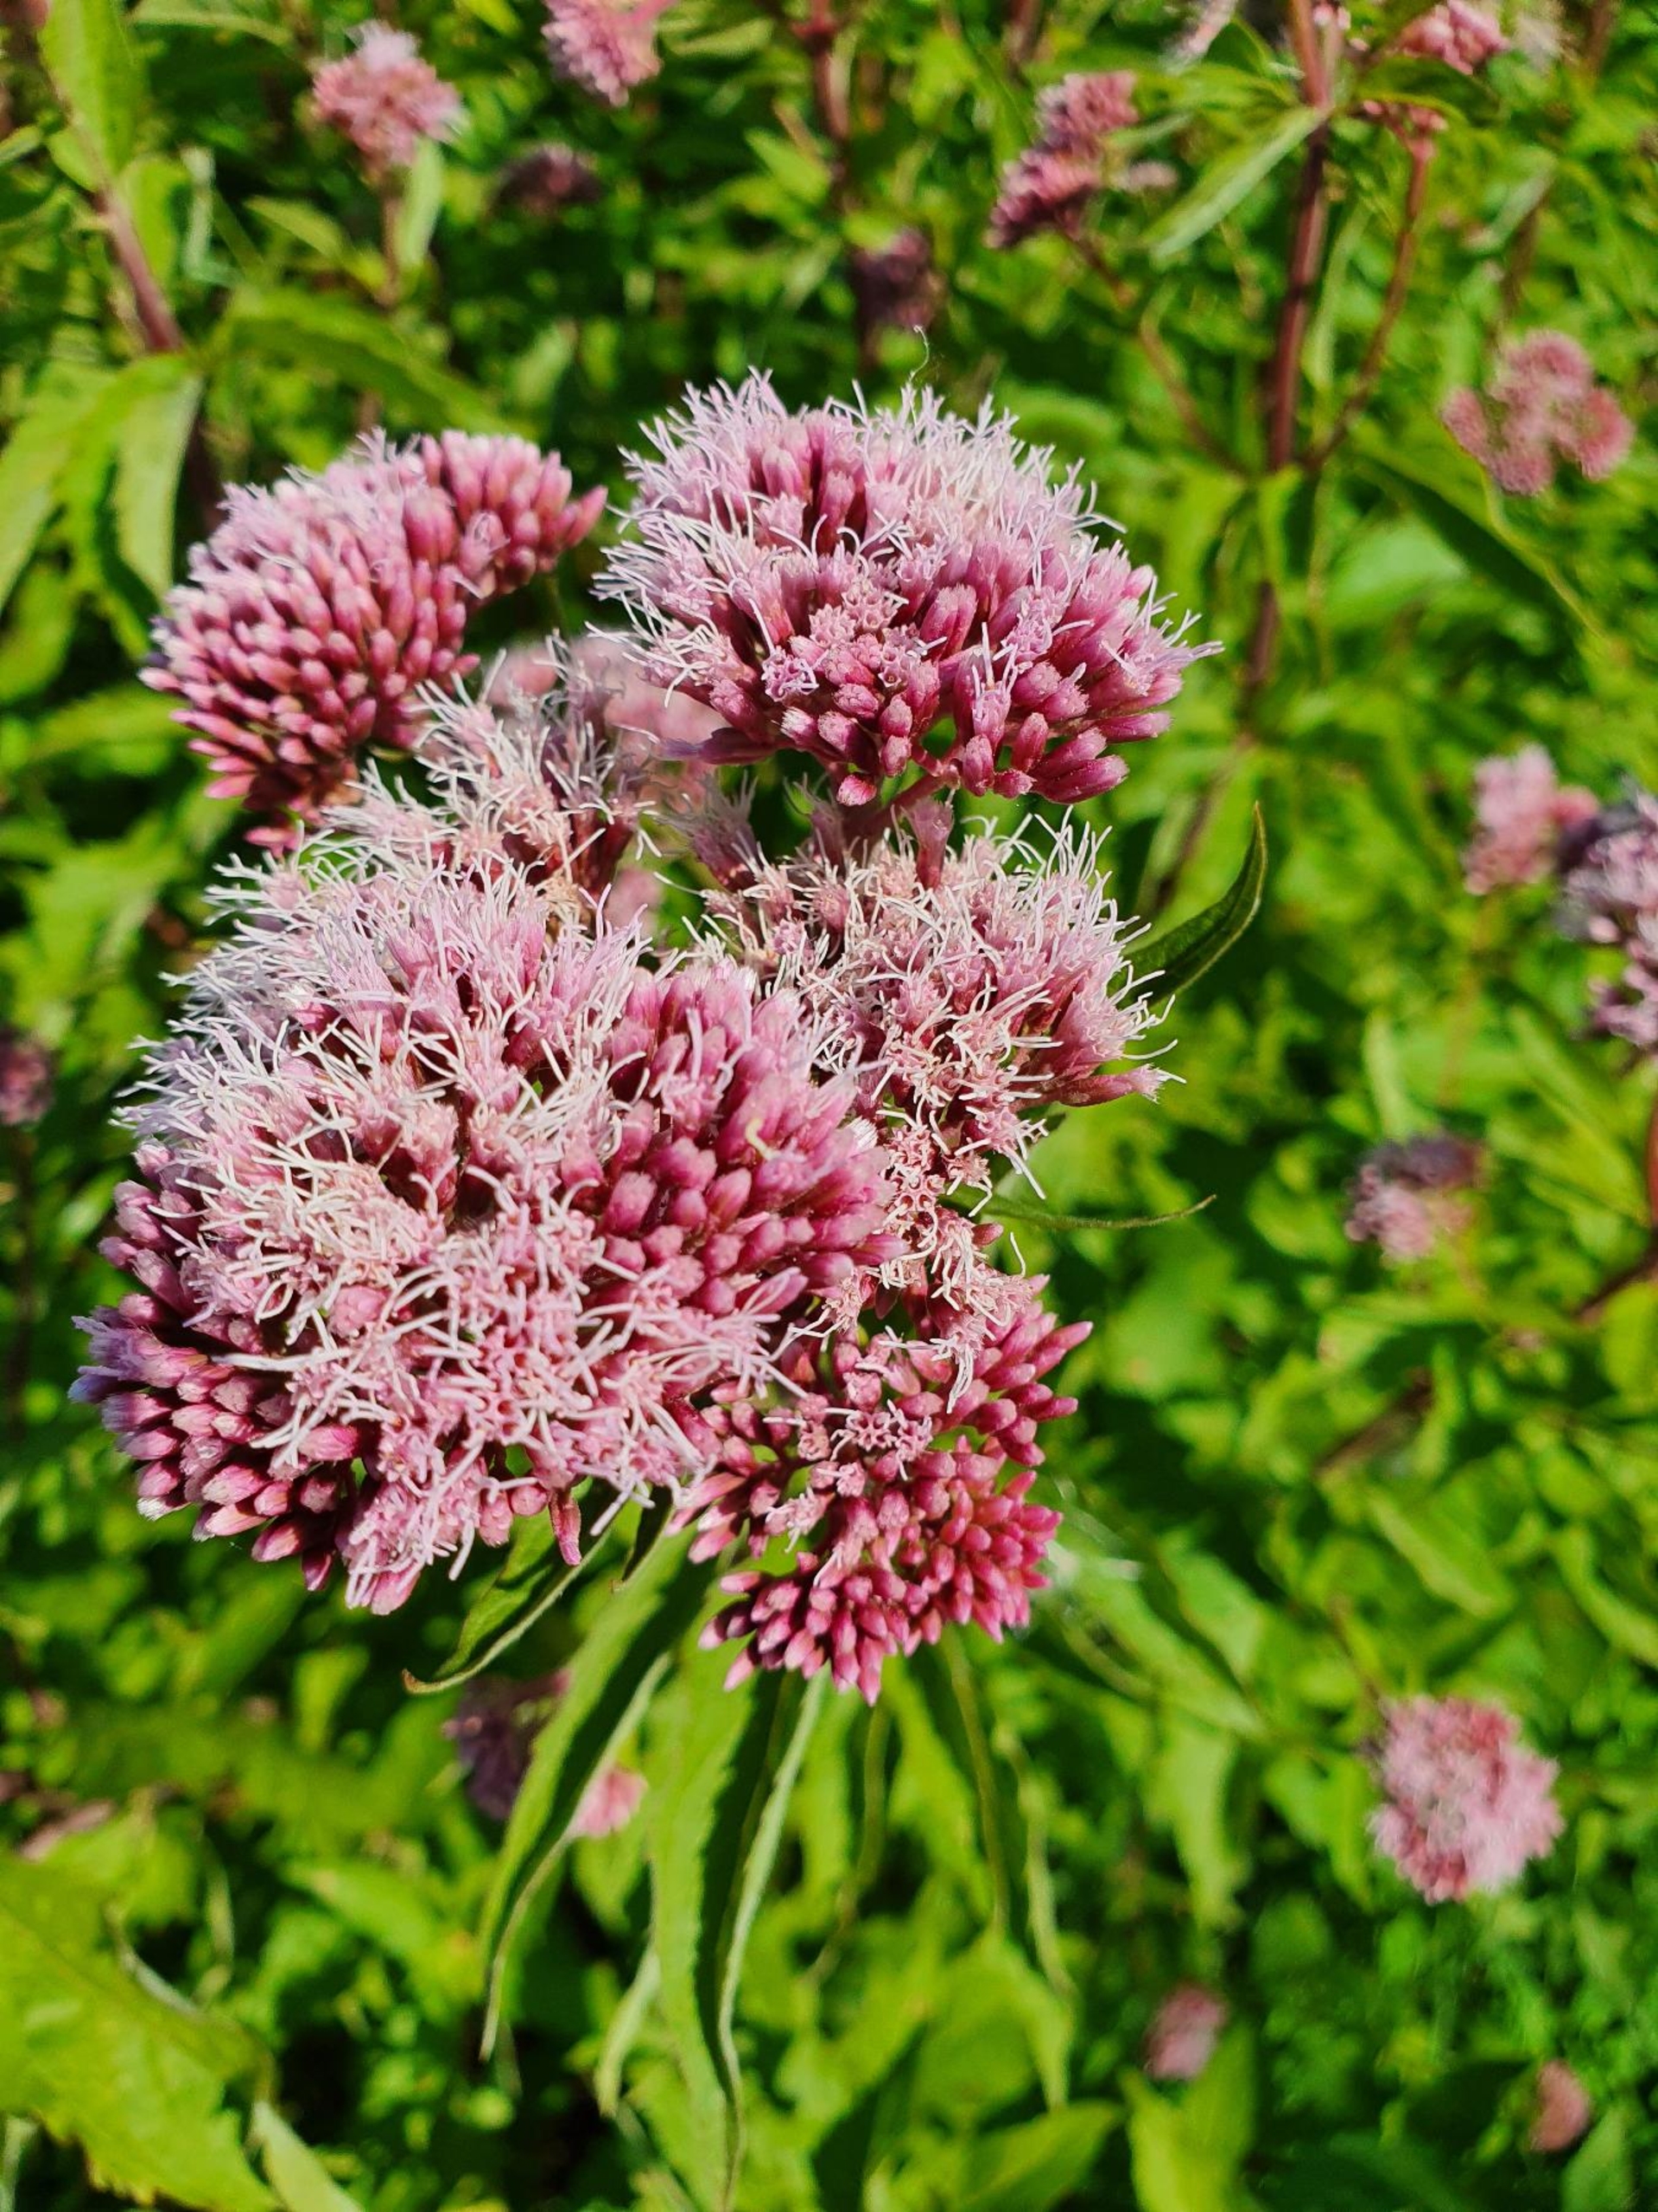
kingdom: Plantae
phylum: Tracheophyta
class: Magnoliopsida
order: Asterales
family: Asteraceae
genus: Eupatorium
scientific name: Eupatorium cannabinum
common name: Hjortetrøst
